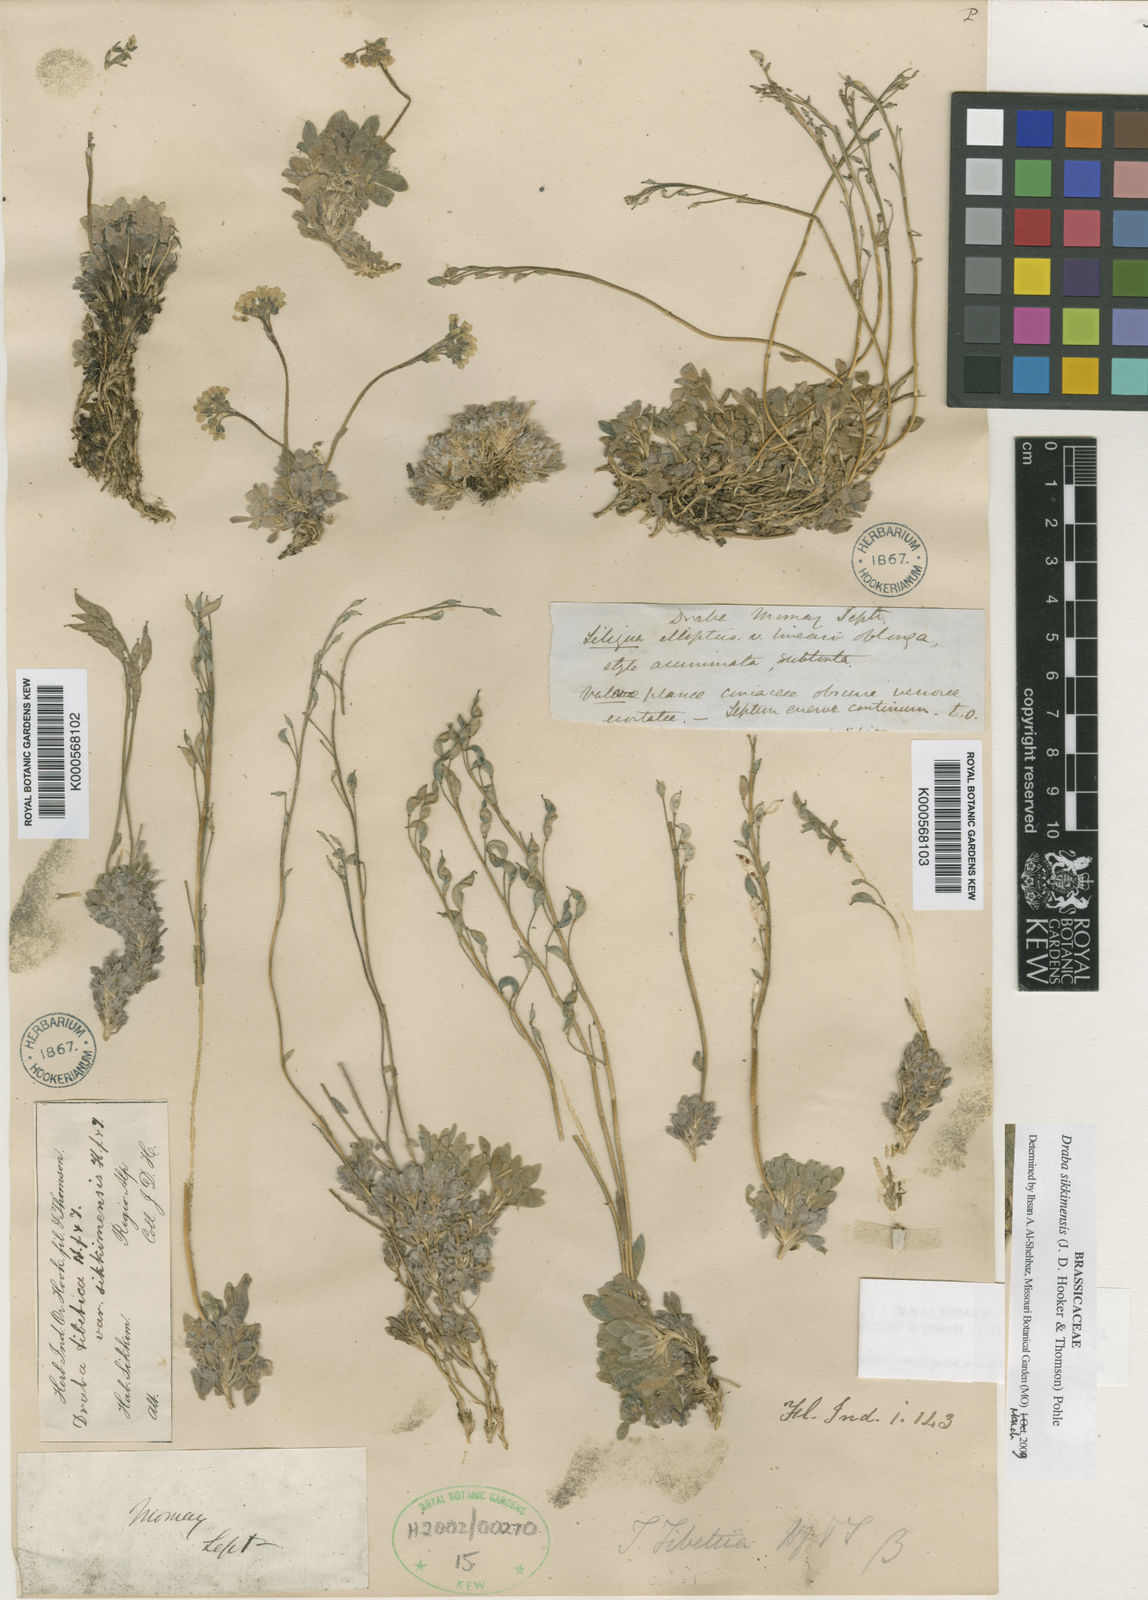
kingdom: Plantae
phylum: Tracheophyta
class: Magnoliopsida
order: Brassicales
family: Brassicaceae
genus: Draba
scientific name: Draba tibetica
